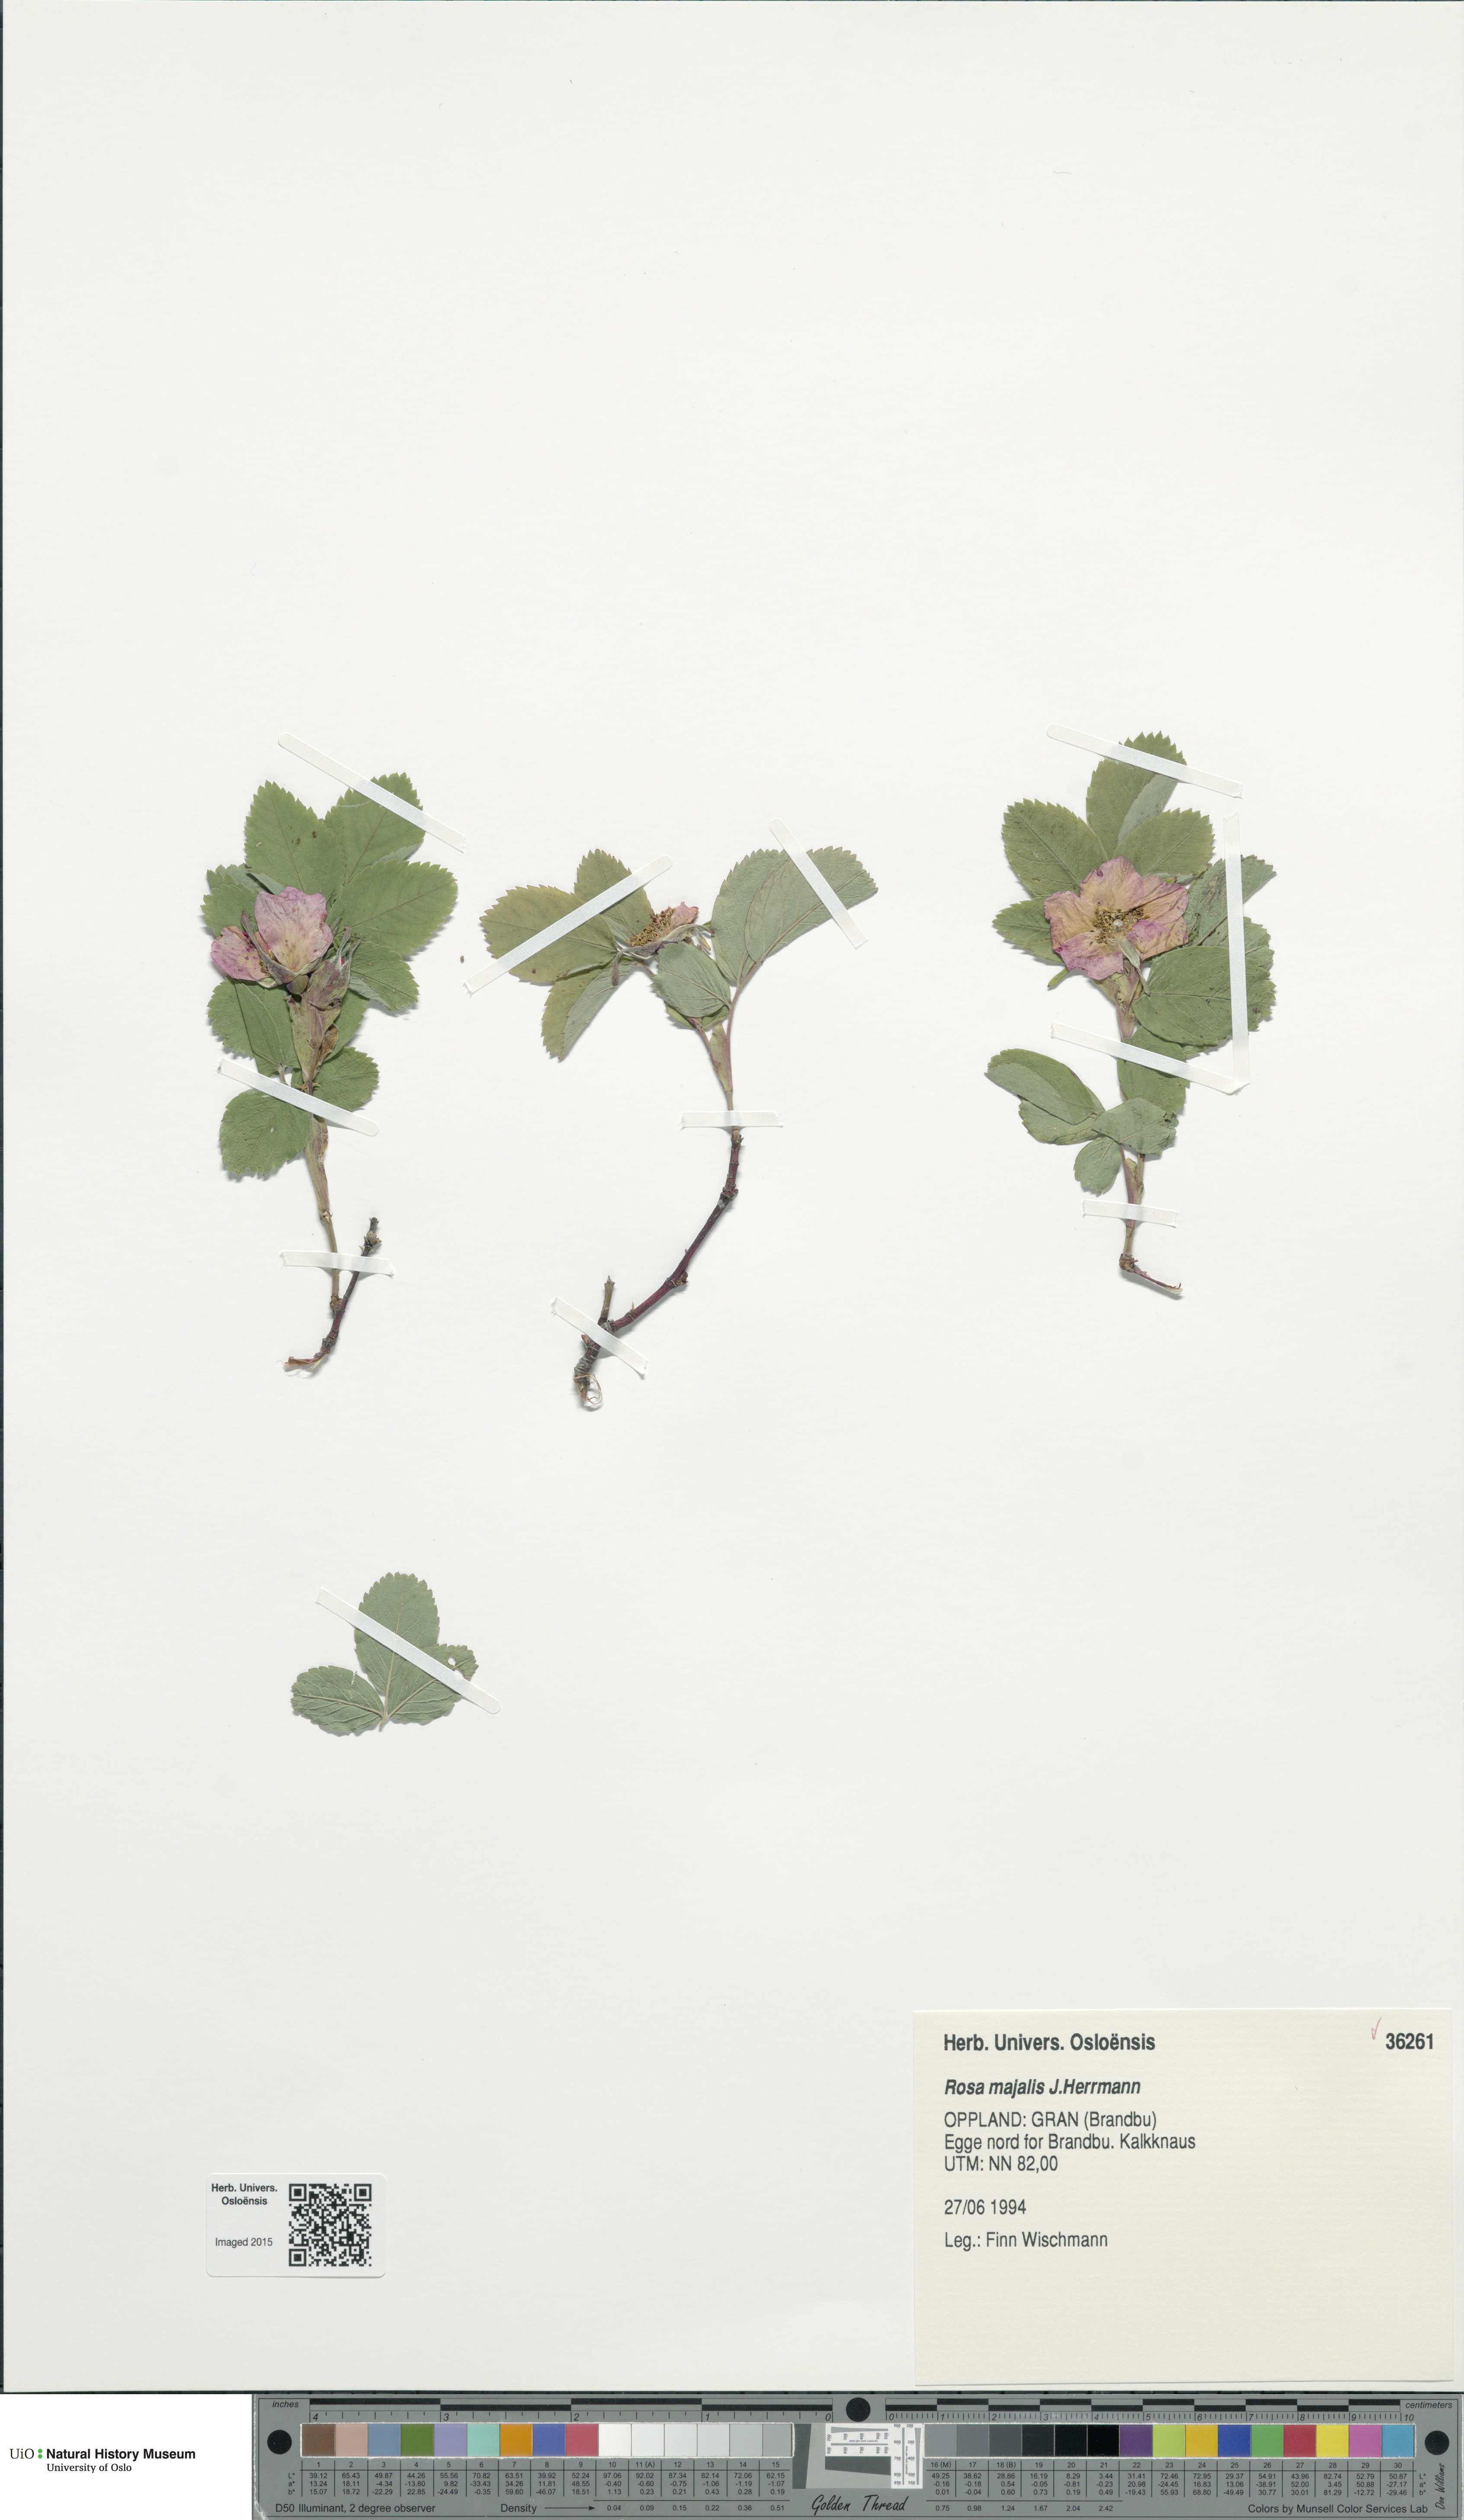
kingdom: Plantae
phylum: Tracheophyta
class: Magnoliopsida
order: Rosales
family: Rosaceae
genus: Rosa
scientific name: Rosa majalis
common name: Cinnamon rose
